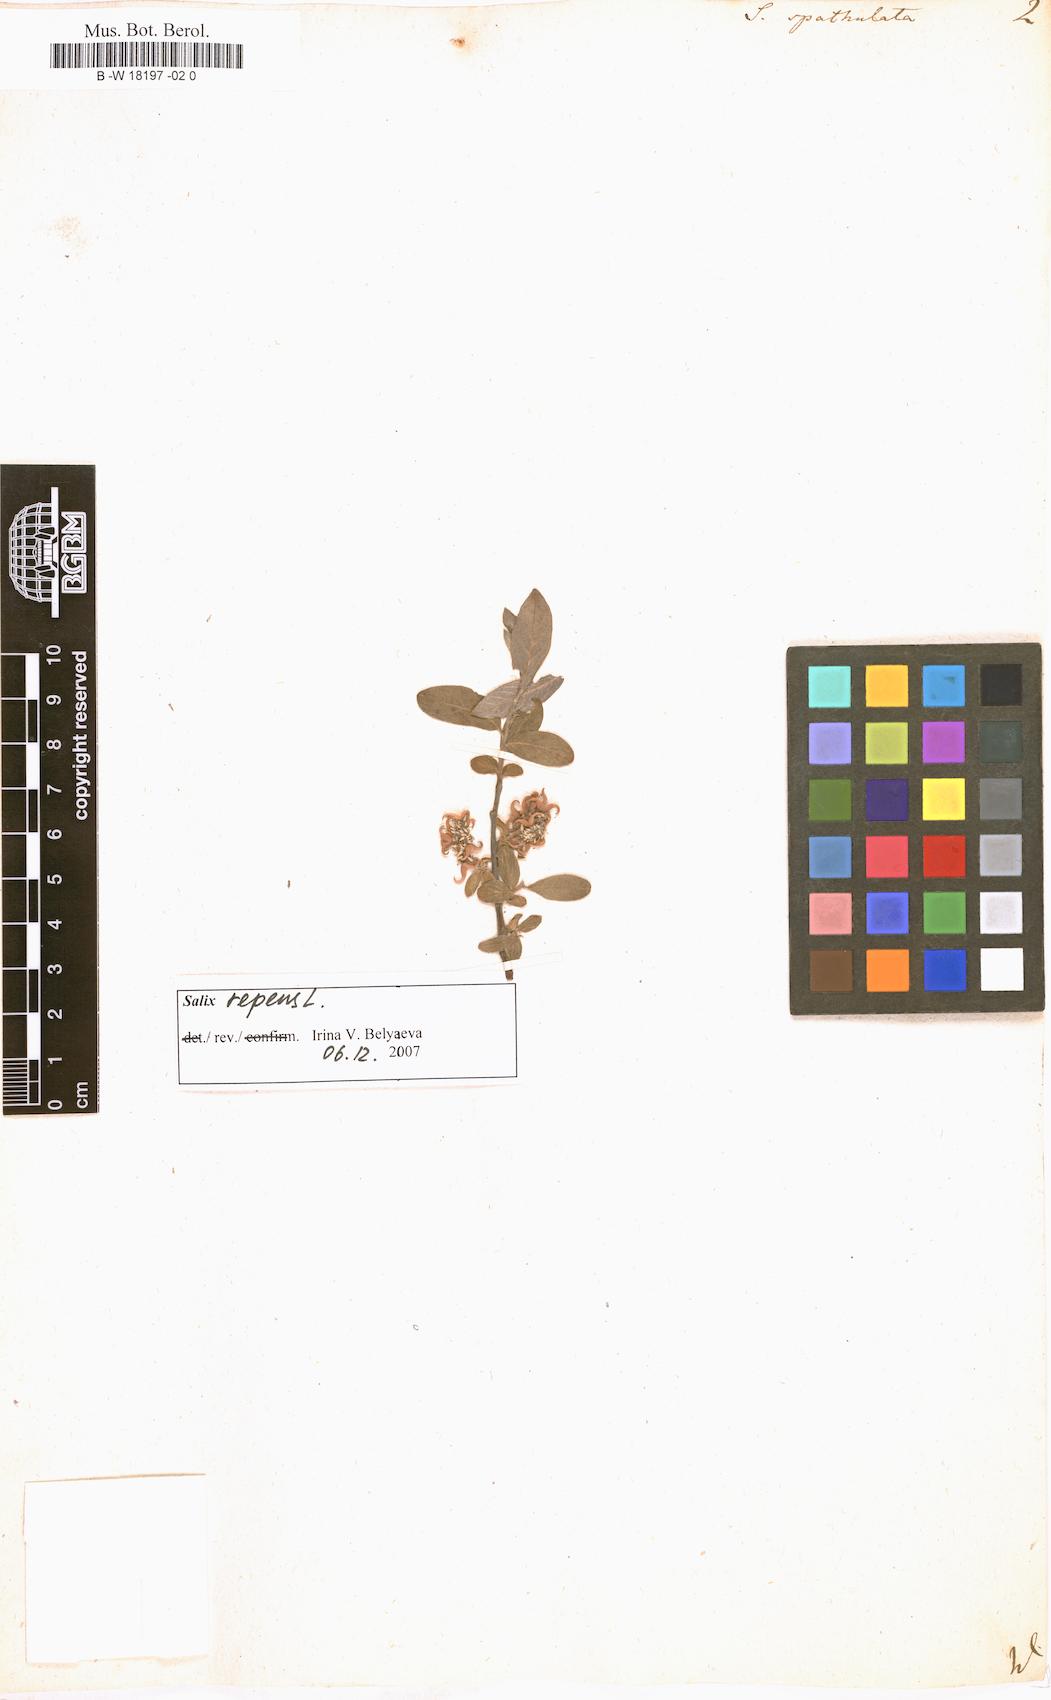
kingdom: Plantae
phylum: Tracheophyta
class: Magnoliopsida
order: Malpighiales
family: Salicaceae
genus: Salix
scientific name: Salix
